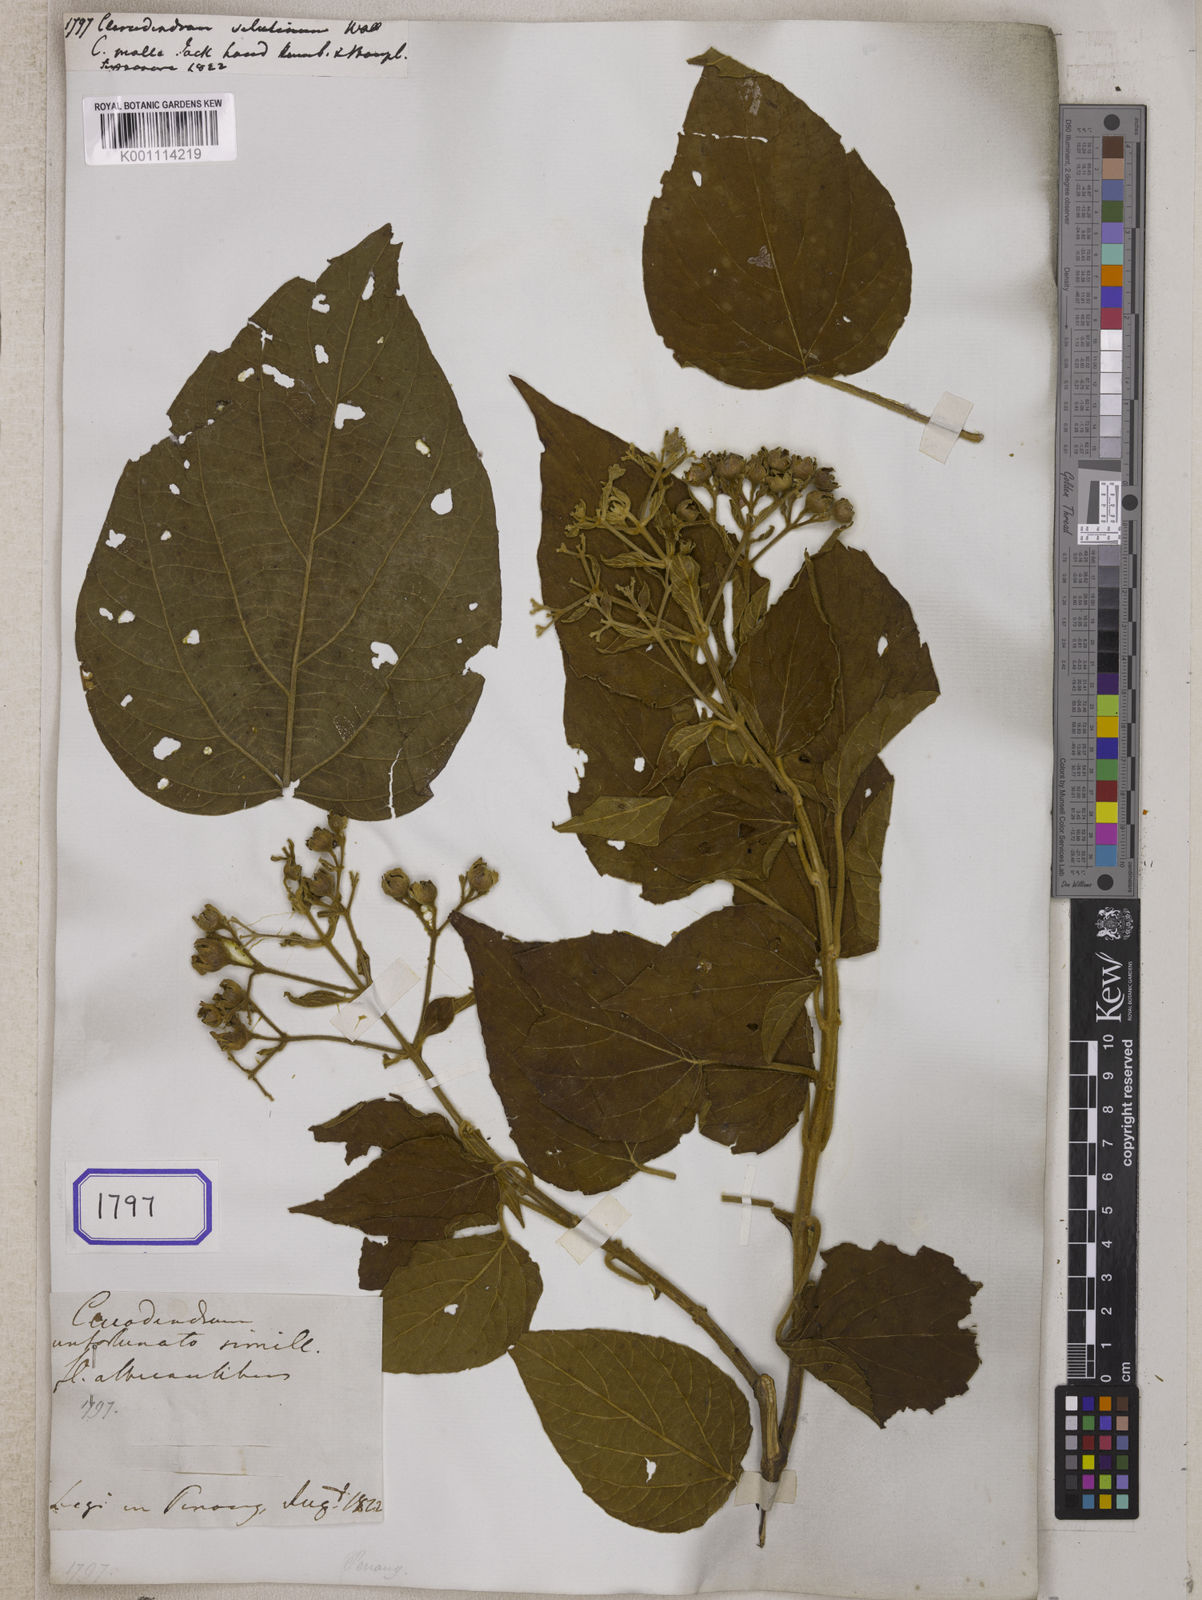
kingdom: Plantae
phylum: Tracheophyta
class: Magnoliopsida
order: Lamiales
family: Lamiaceae
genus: Clerodendrum
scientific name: Clerodendrum villosum
